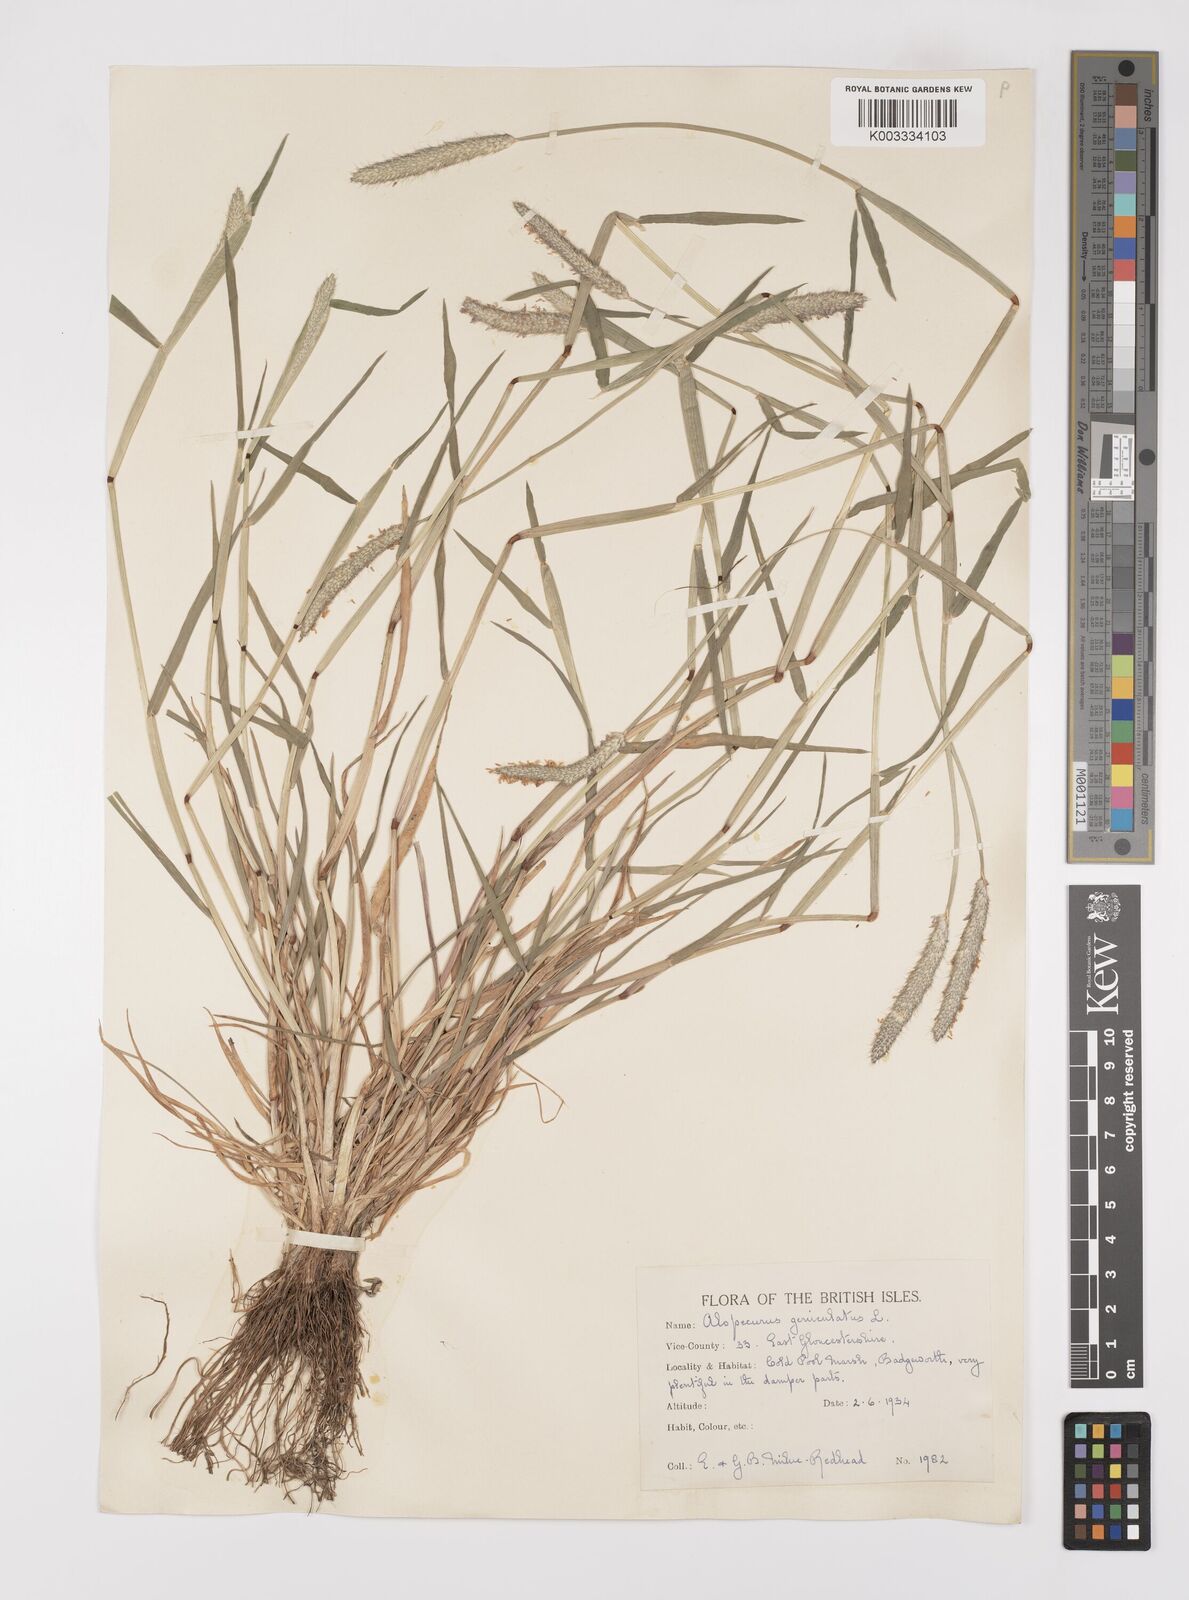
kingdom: Plantae
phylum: Tracheophyta
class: Liliopsida
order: Poales
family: Poaceae
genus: Alopecurus
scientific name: Alopecurus geniculatus
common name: Water foxtail
